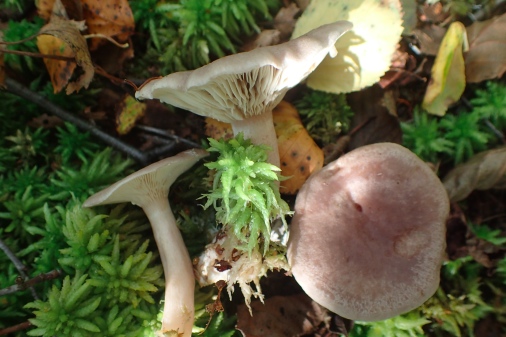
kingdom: Fungi
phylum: Basidiomycota
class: Agaricomycetes
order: Russulales
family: Russulaceae
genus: Lactarius
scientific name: Lactarius vietus
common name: violetgrå mælkehat
